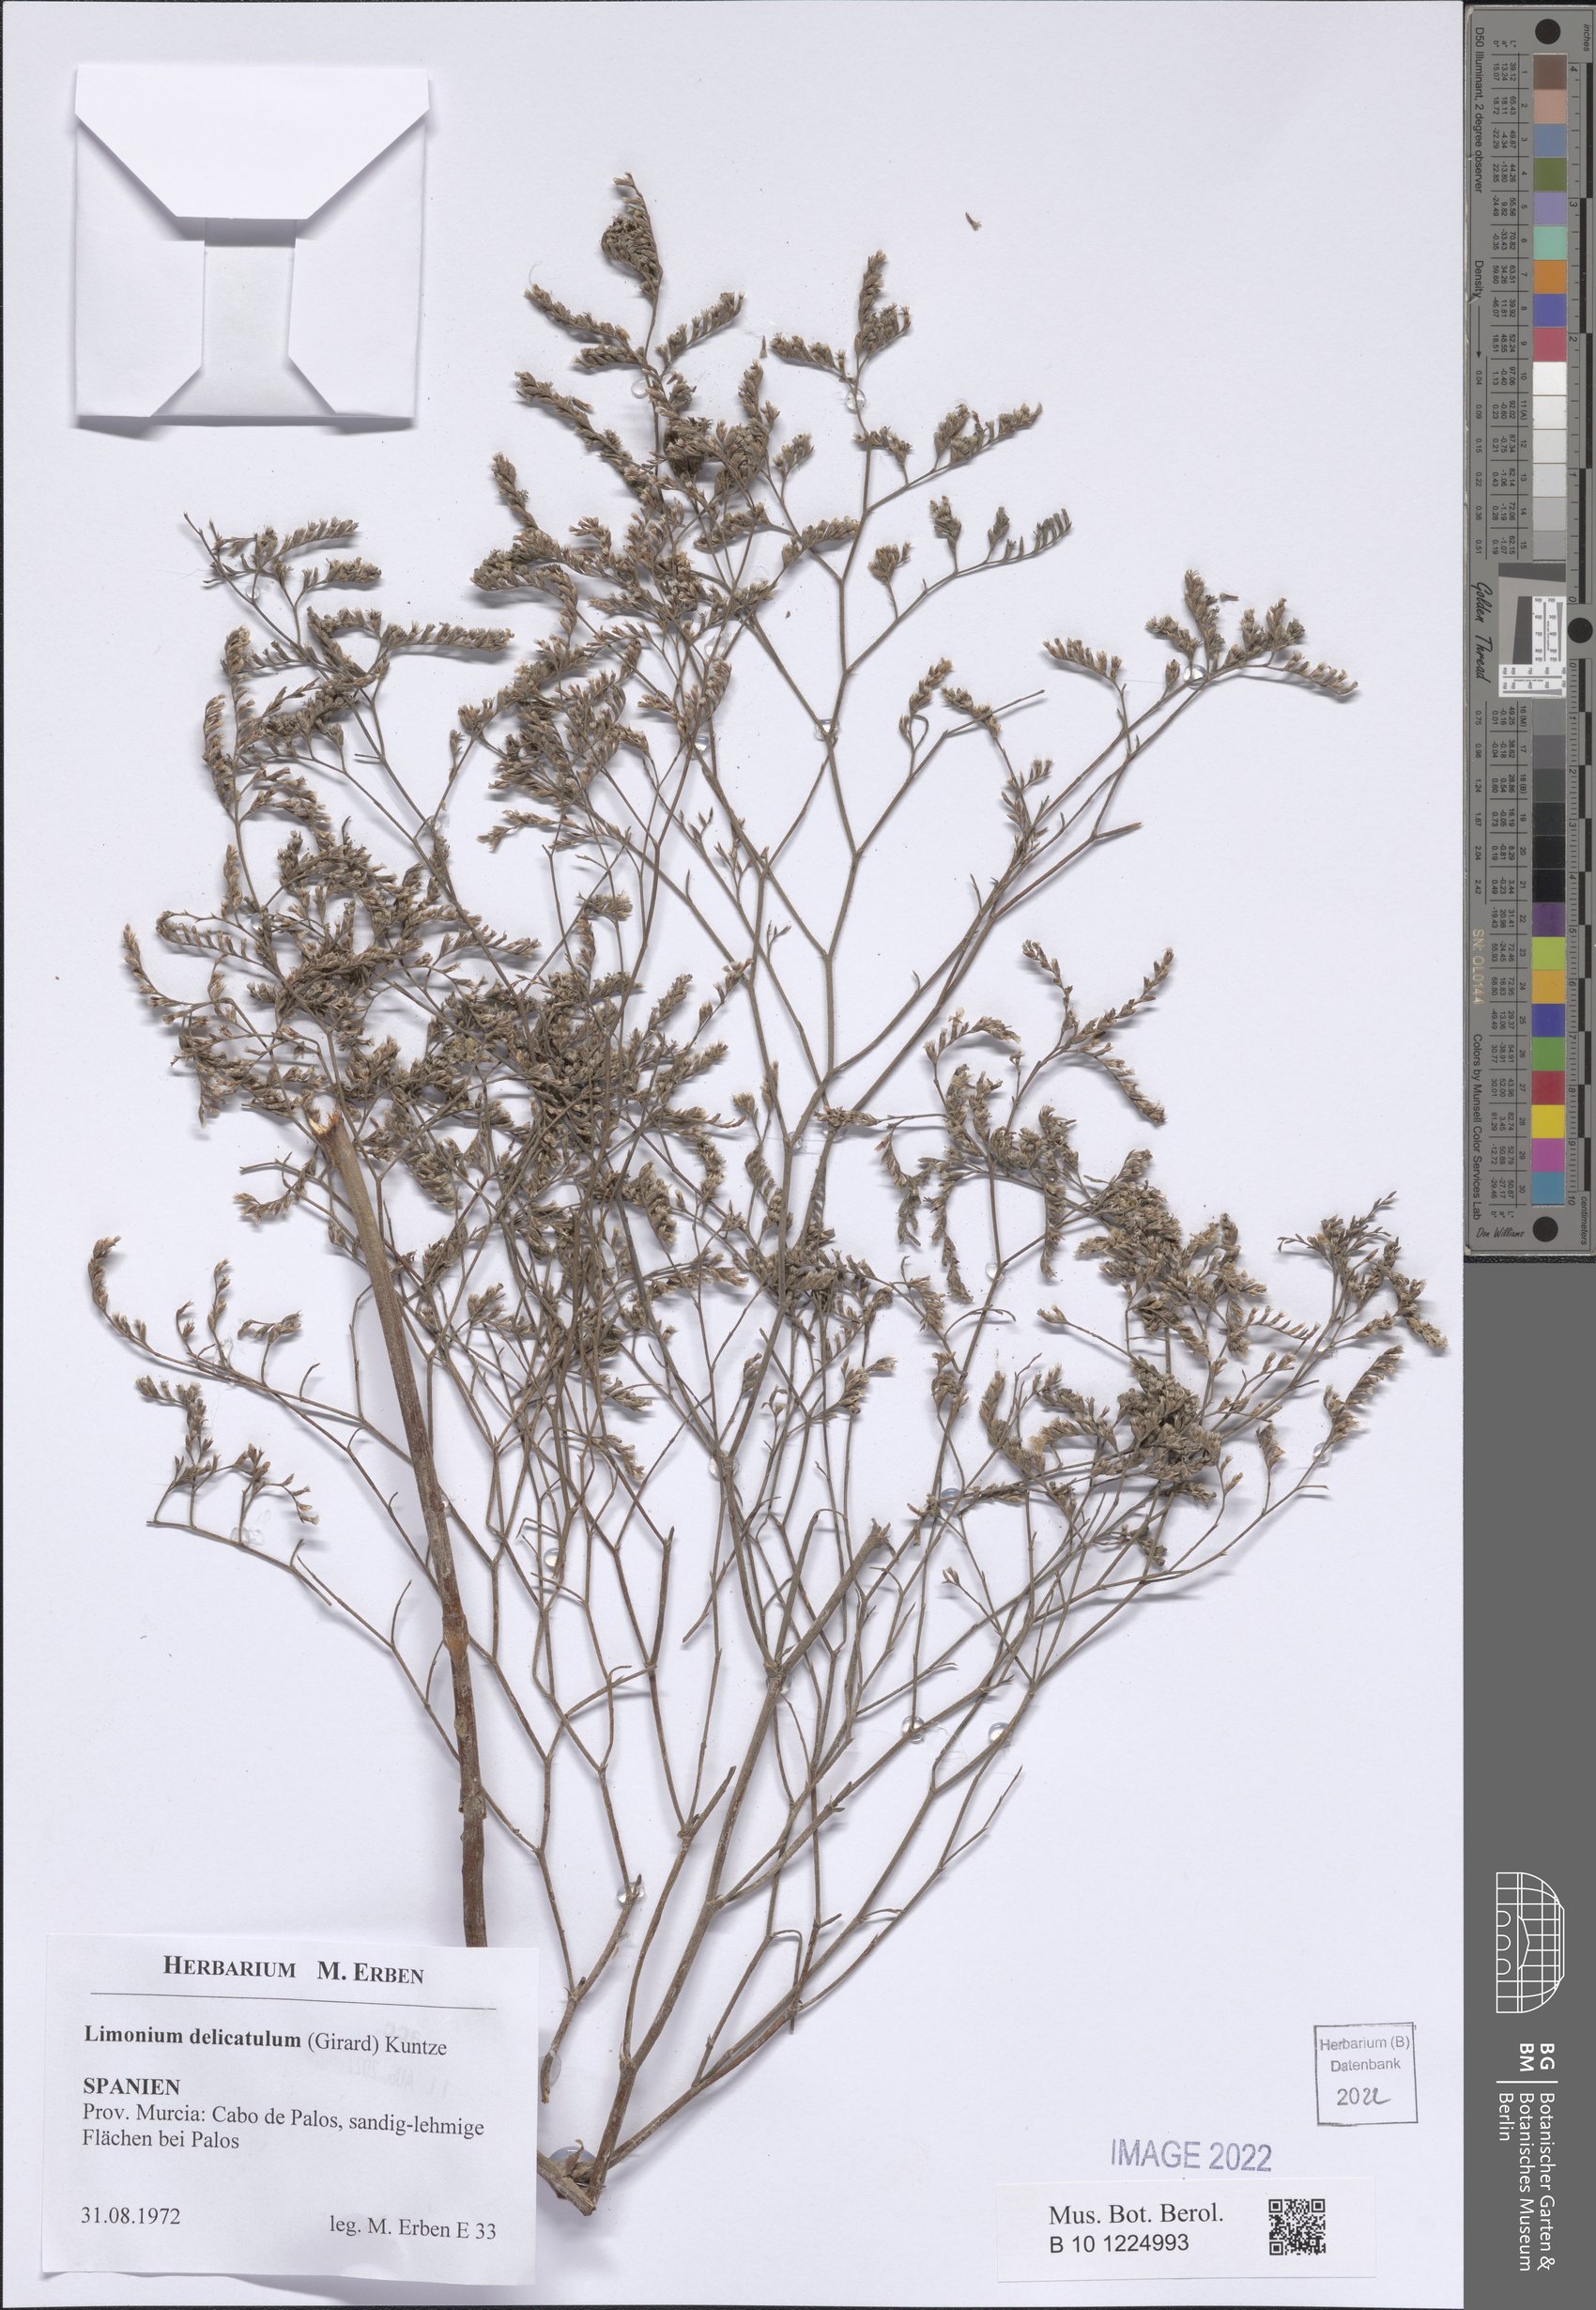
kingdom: Plantae
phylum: Tracheophyta
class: Magnoliopsida
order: Caryophyllales
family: Plumbaginaceae
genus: Limonium
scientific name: Limonium delicatulum
